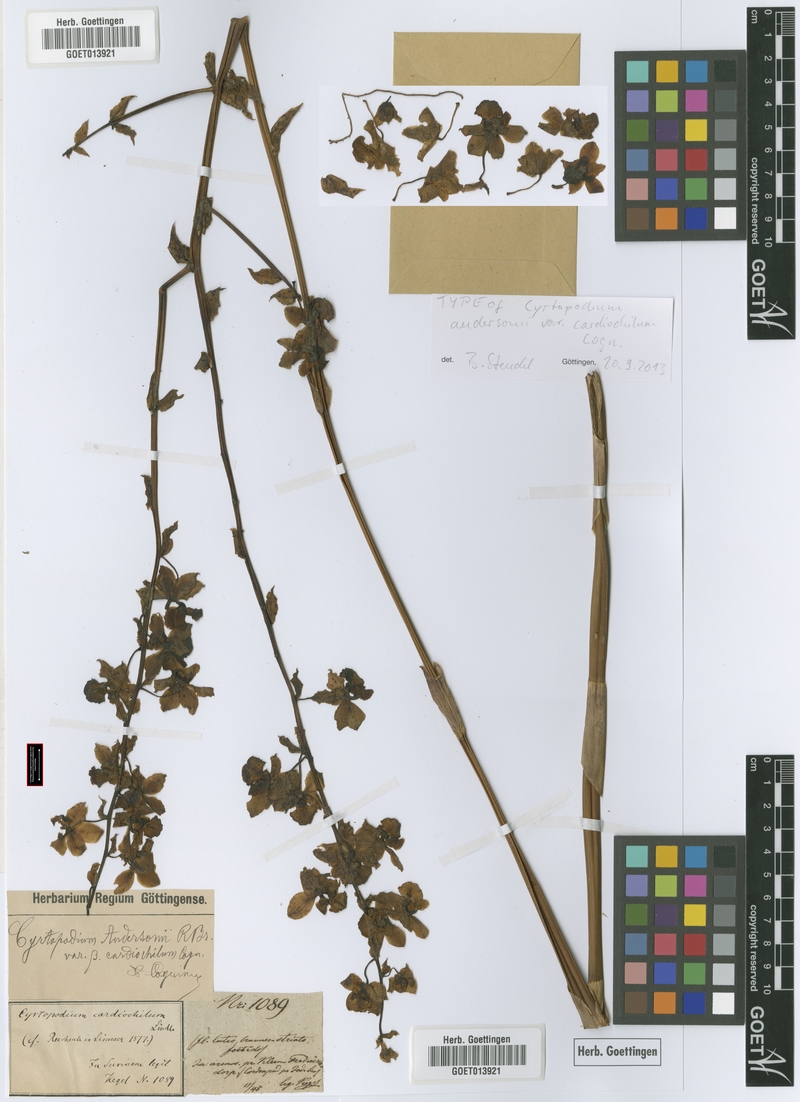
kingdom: Plantae
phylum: Tracheophyta
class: Liliopsida
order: Asparagales
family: Orchidaceae
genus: Cyrtopodium
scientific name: Cyrtopodium andersonii
